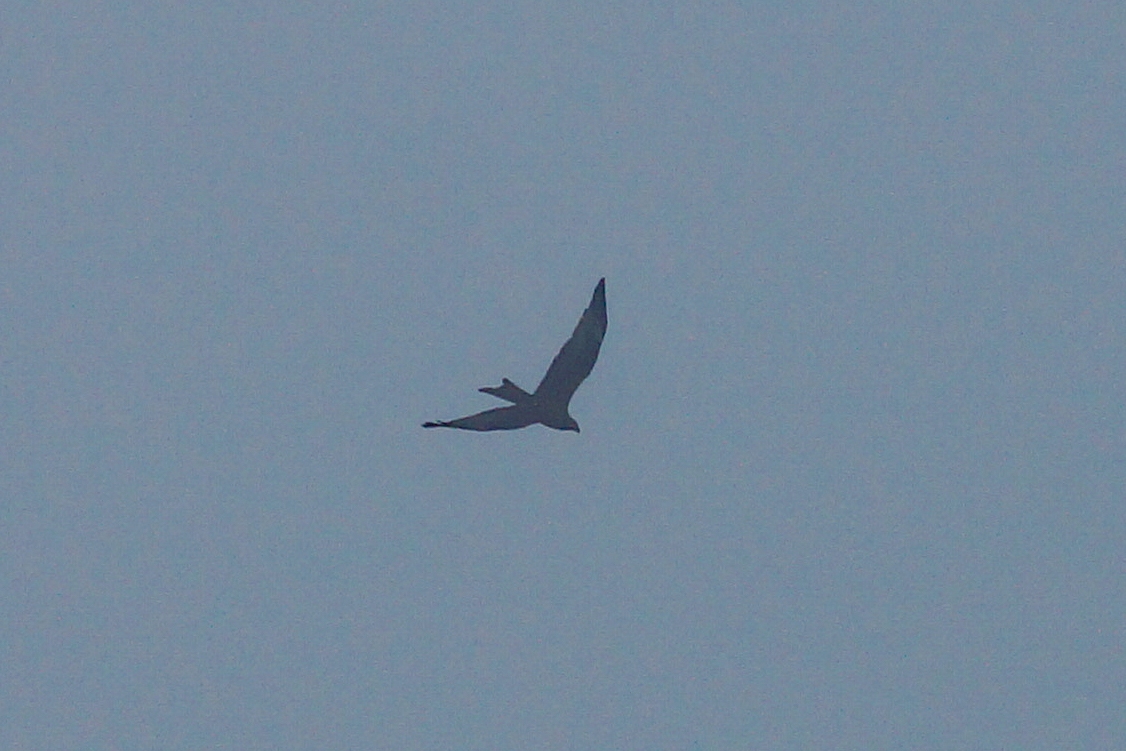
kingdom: Animalia
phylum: Chordata
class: Aves
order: Accipitriformes
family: Accipitridae
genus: Milvus
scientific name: Milvus milvus
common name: Rød glente
